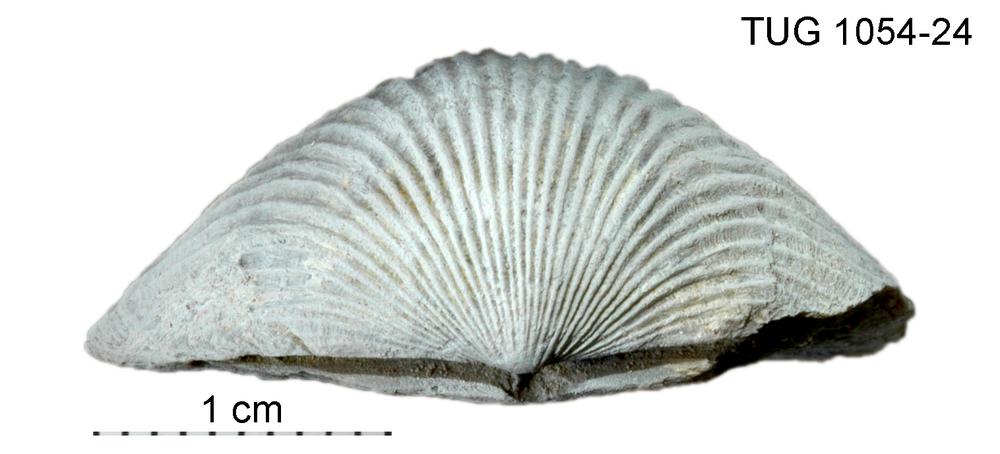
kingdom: Animalia
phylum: Brachiopoda
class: Rhynchonellata
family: Orthidae
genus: Cyrtonotella
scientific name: Cyrtonotella
